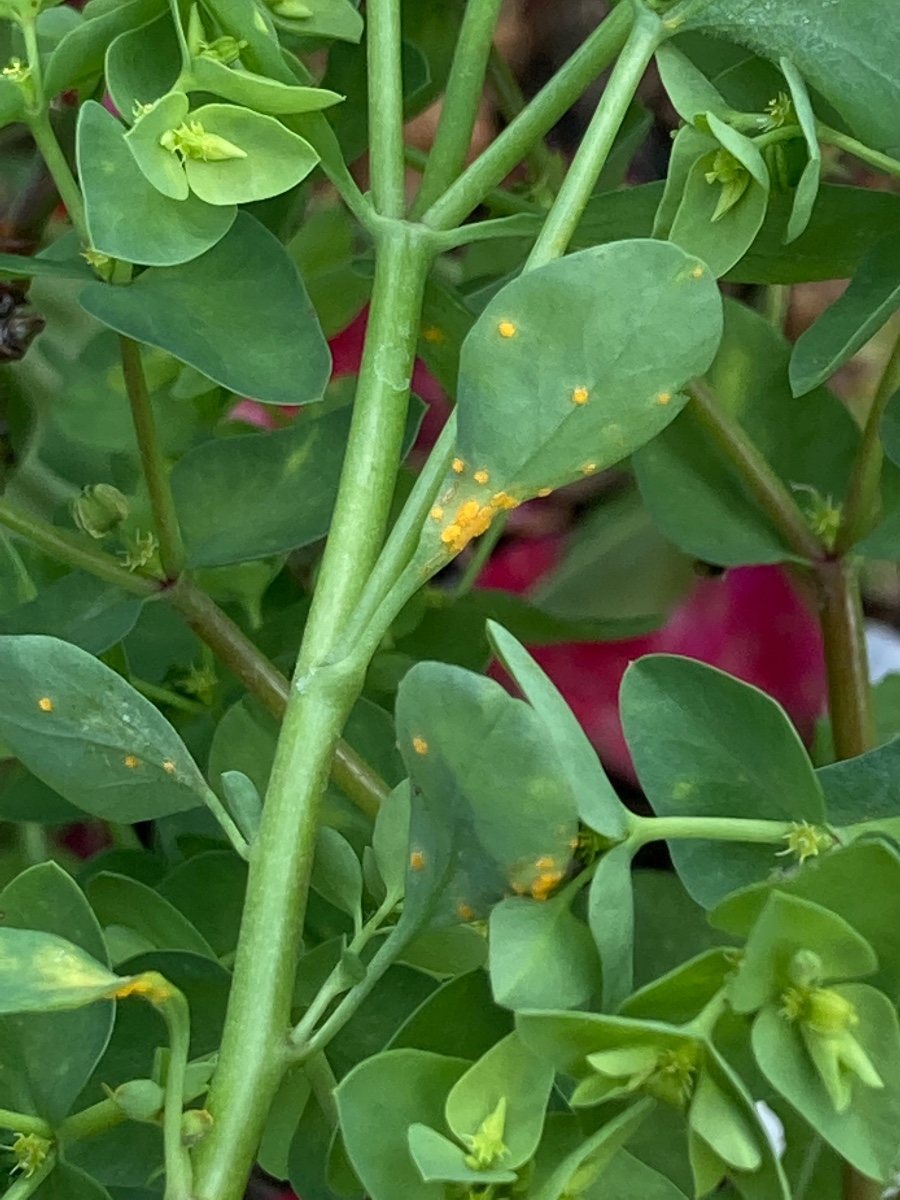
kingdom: Fungi
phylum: Basidiomycota
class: Pucciniomycetes
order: Pucciniales
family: Melampsoraceae
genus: Melampsora
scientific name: Melampsora euphorbiae
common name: vortemælk-skorperust
